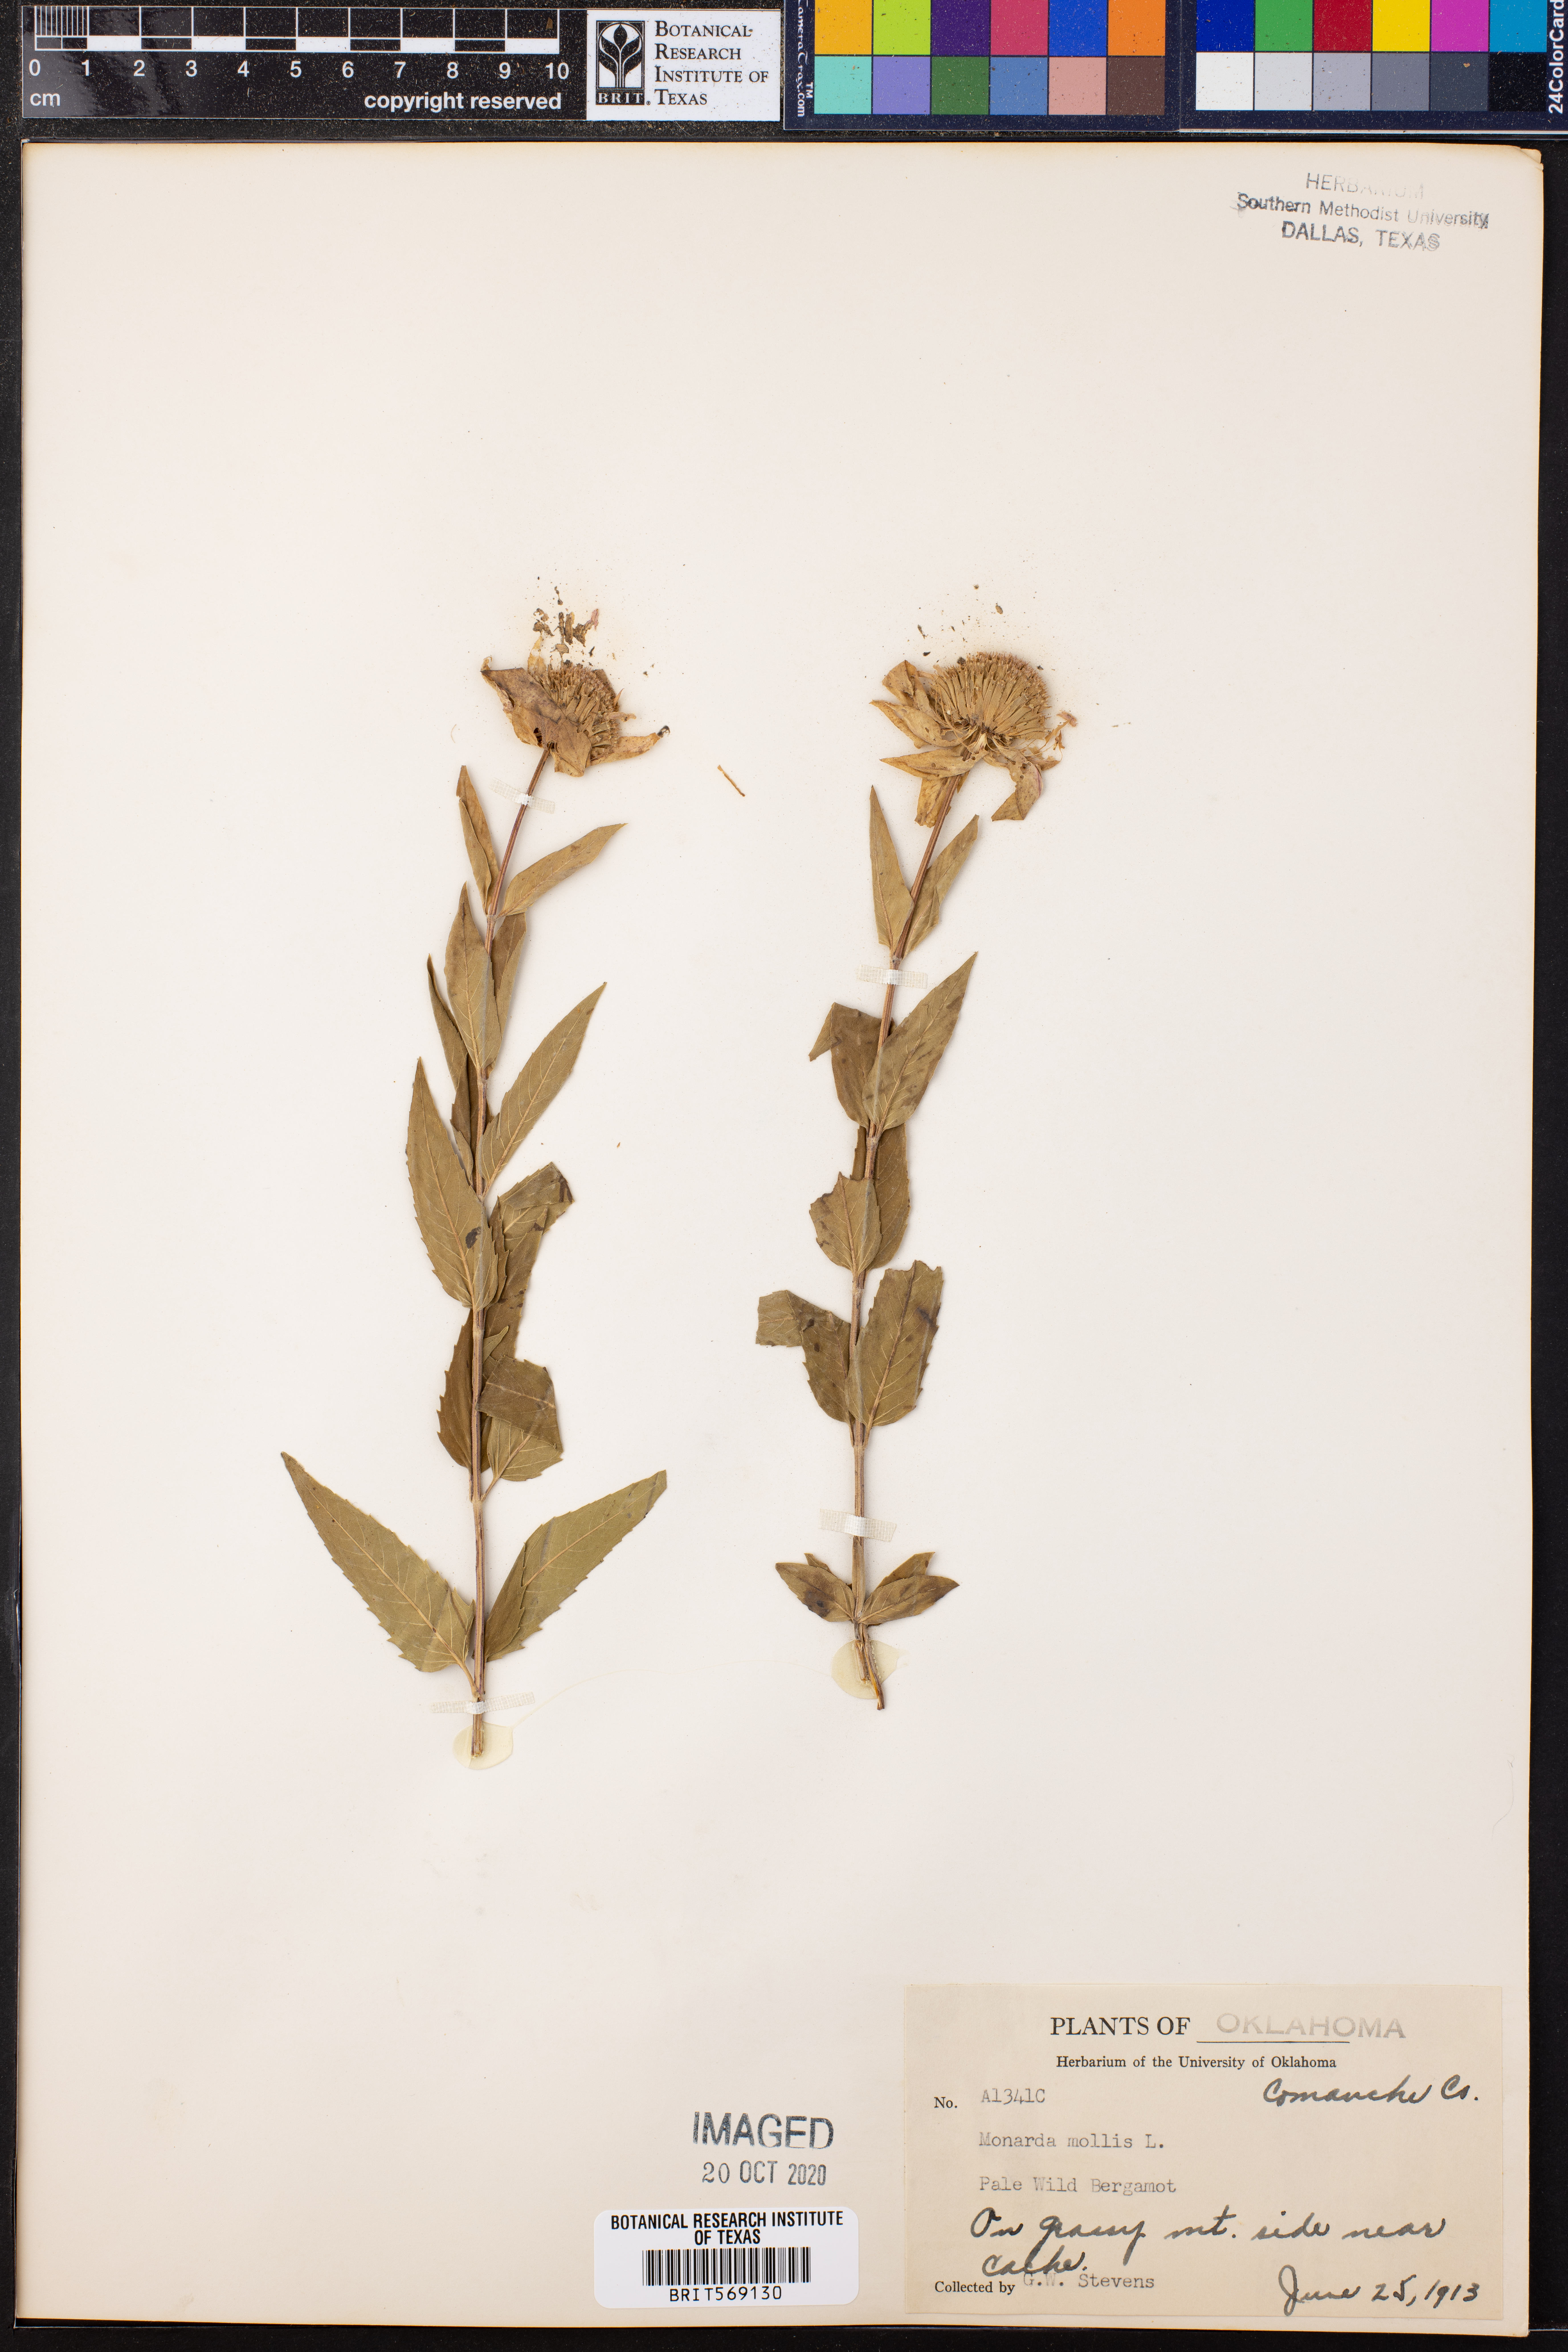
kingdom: Plantae
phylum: Tracheophyta
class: Magnoliopsida
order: Lamiales
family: Lamiaceae
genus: Monarda
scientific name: Monarda fistulosa
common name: Purple beebalm
